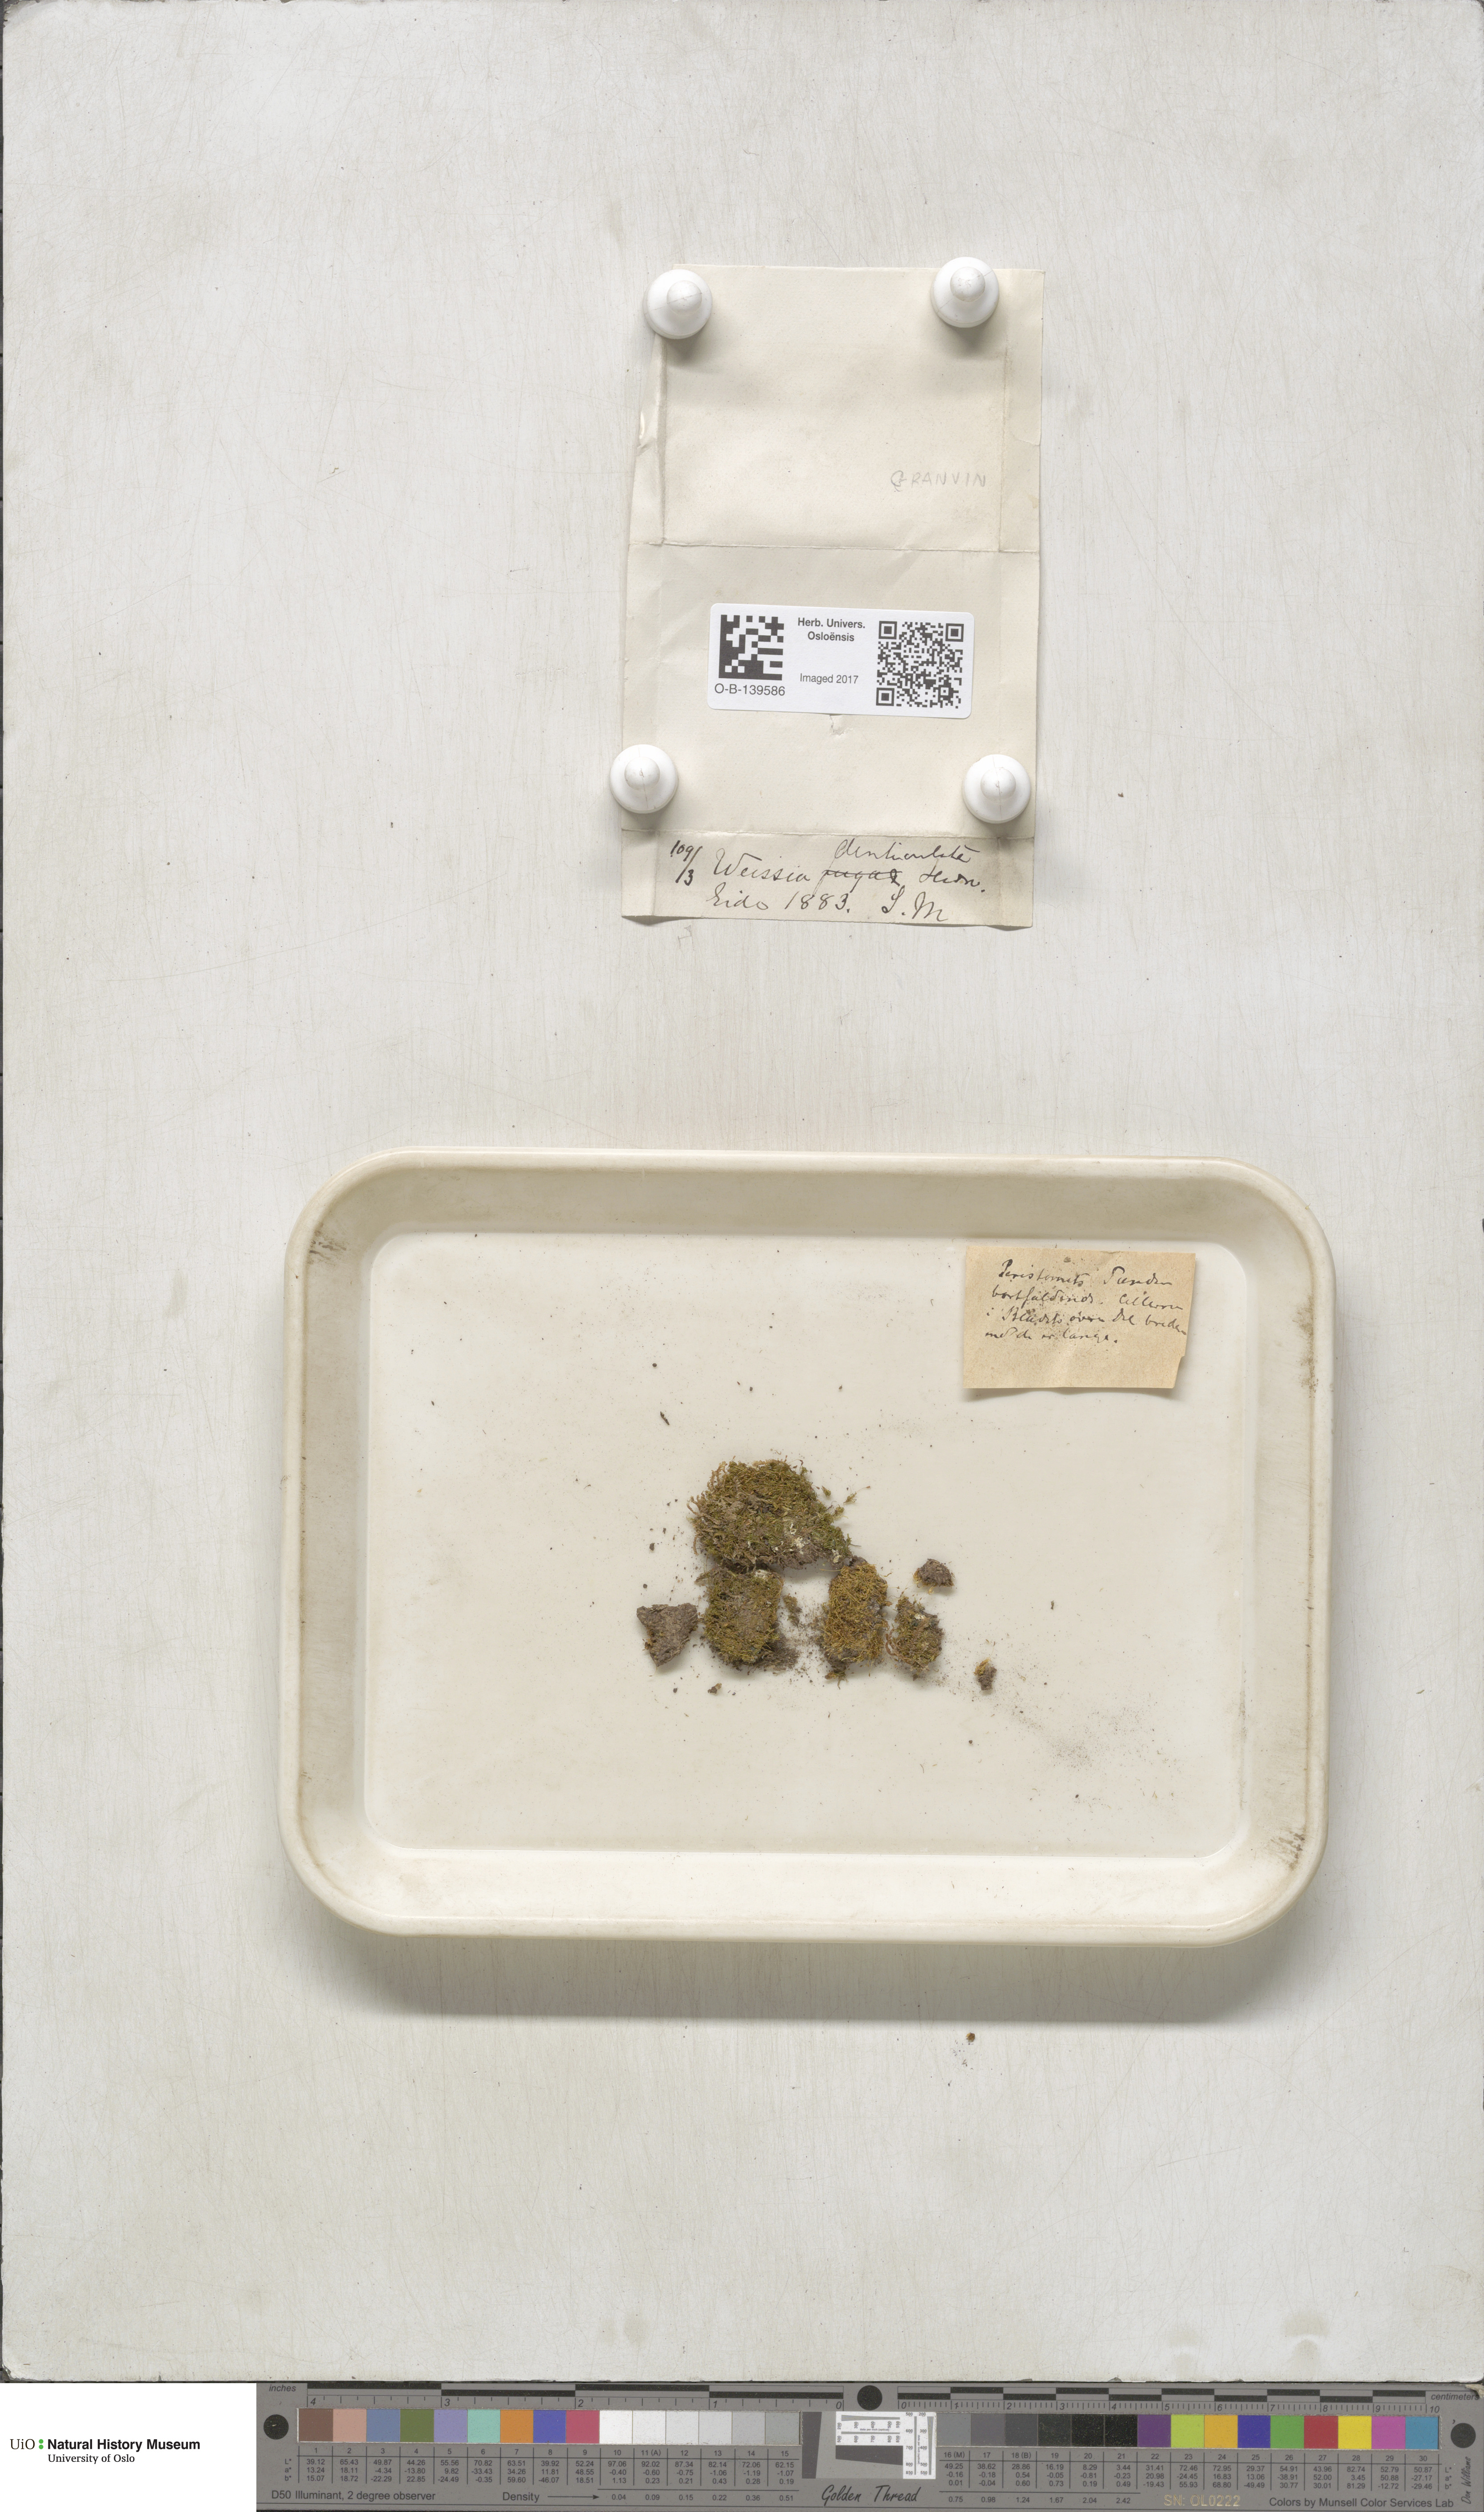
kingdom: Plantae
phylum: Bryophyta
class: Bryopsida
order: Dicranales
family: Rhabdoweisiaceae
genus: Rhabdoweisia
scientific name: Rhabdoweisia crispata
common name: Fine-toothed streak moss
